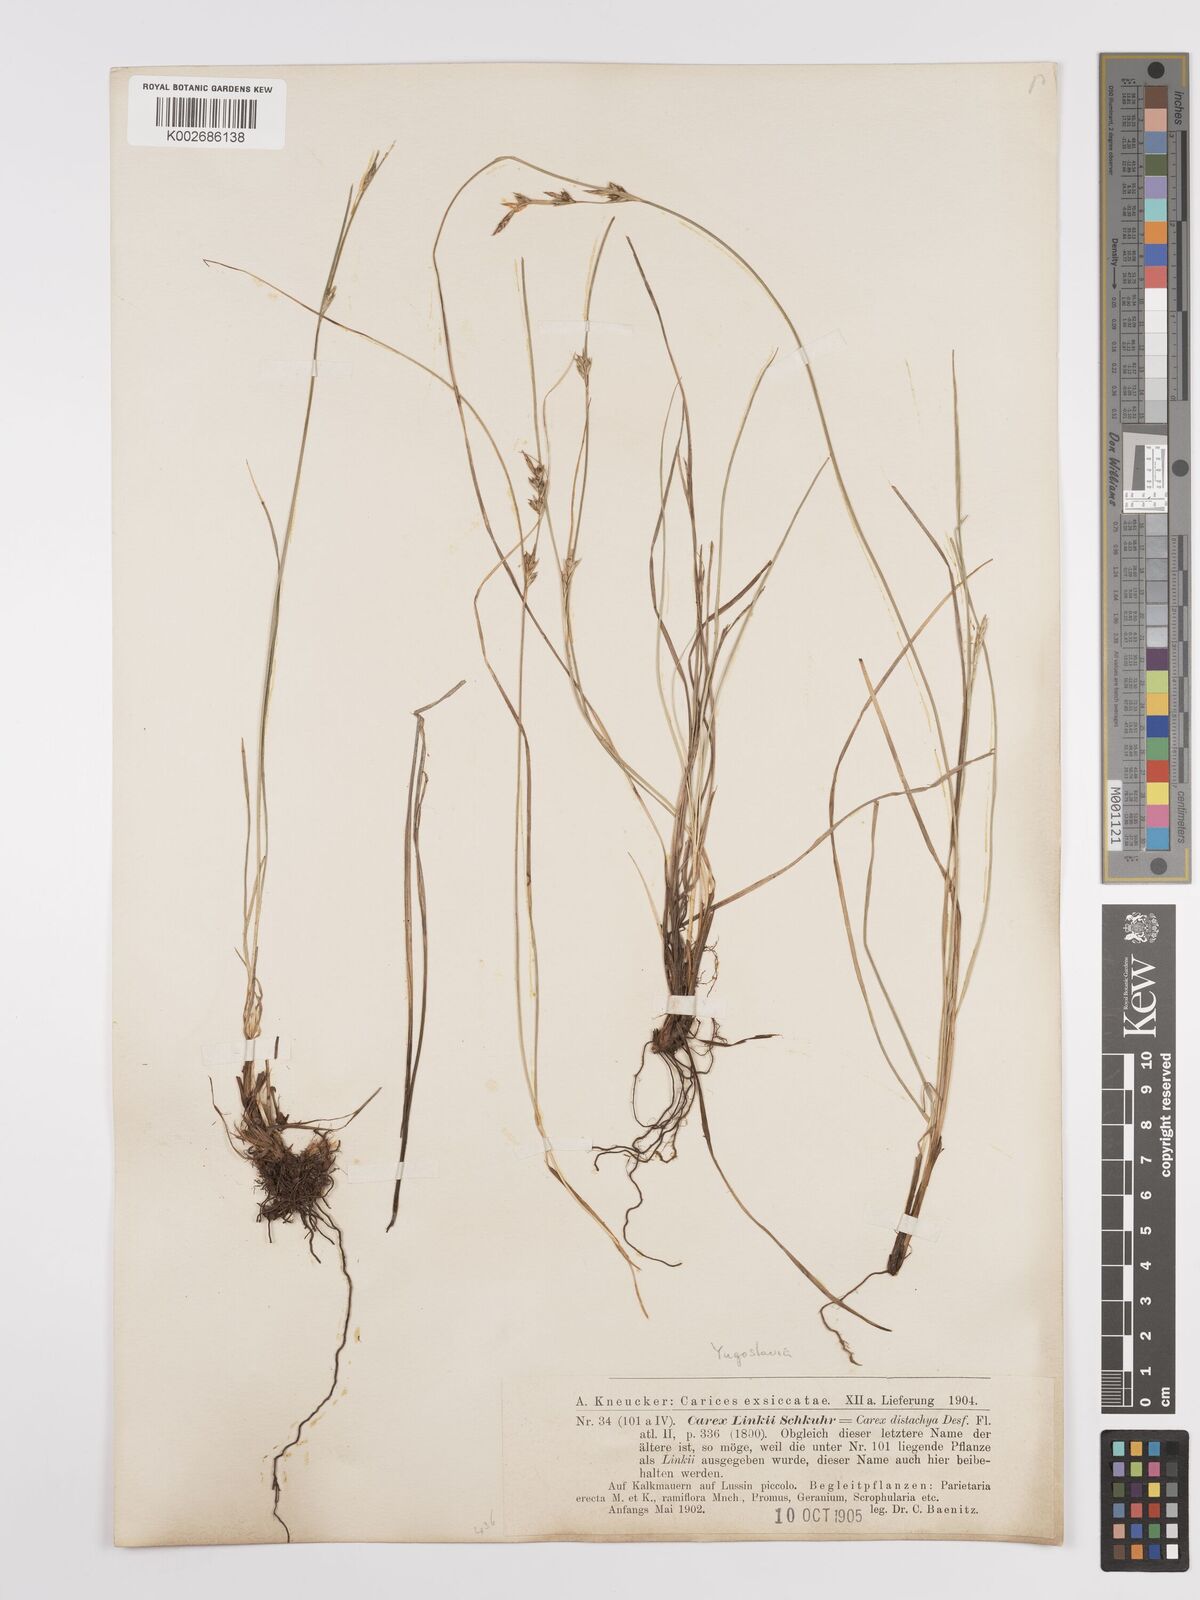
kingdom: Plantae
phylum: Tracheophyta
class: Liliopsida
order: Poales
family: Cyperaceae
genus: Carex
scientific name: Carex distachya
